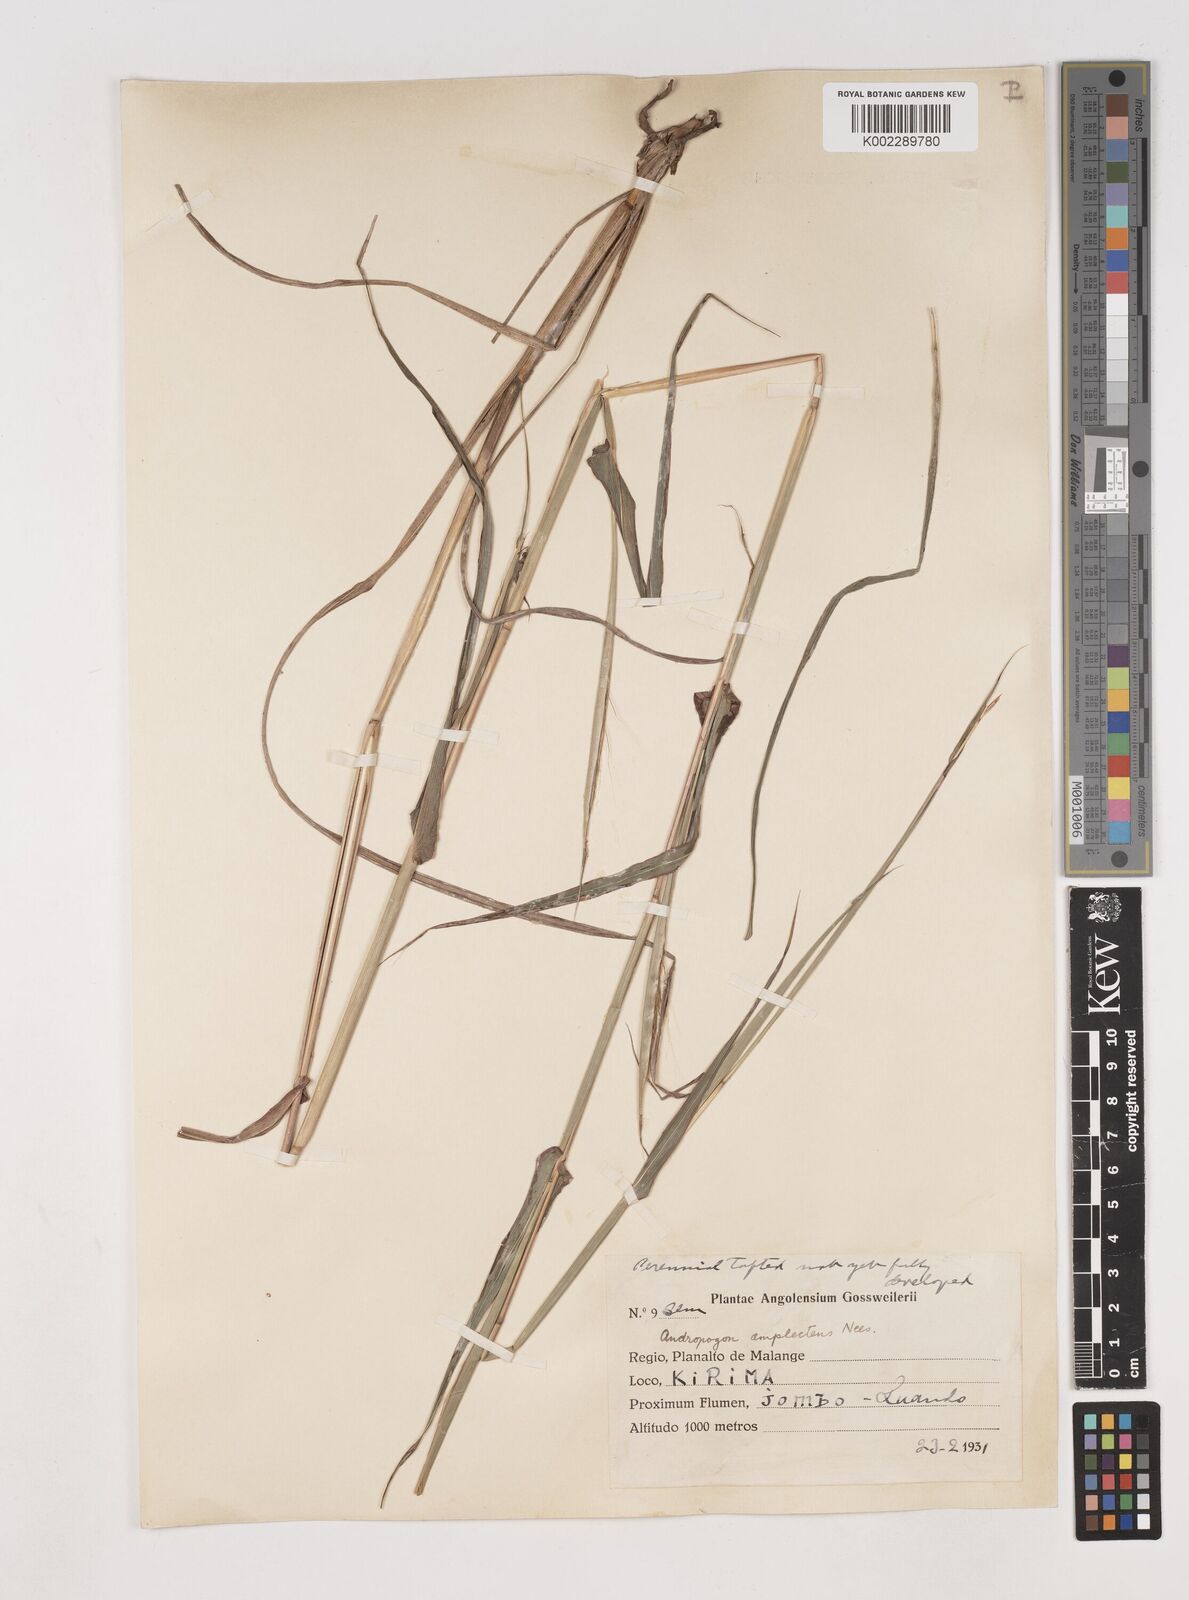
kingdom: Plantae
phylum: Tracheophyta
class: Liliopsida
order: Poales
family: Poaceae
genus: Diheteropogon
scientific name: Diheteropogon amplectens
